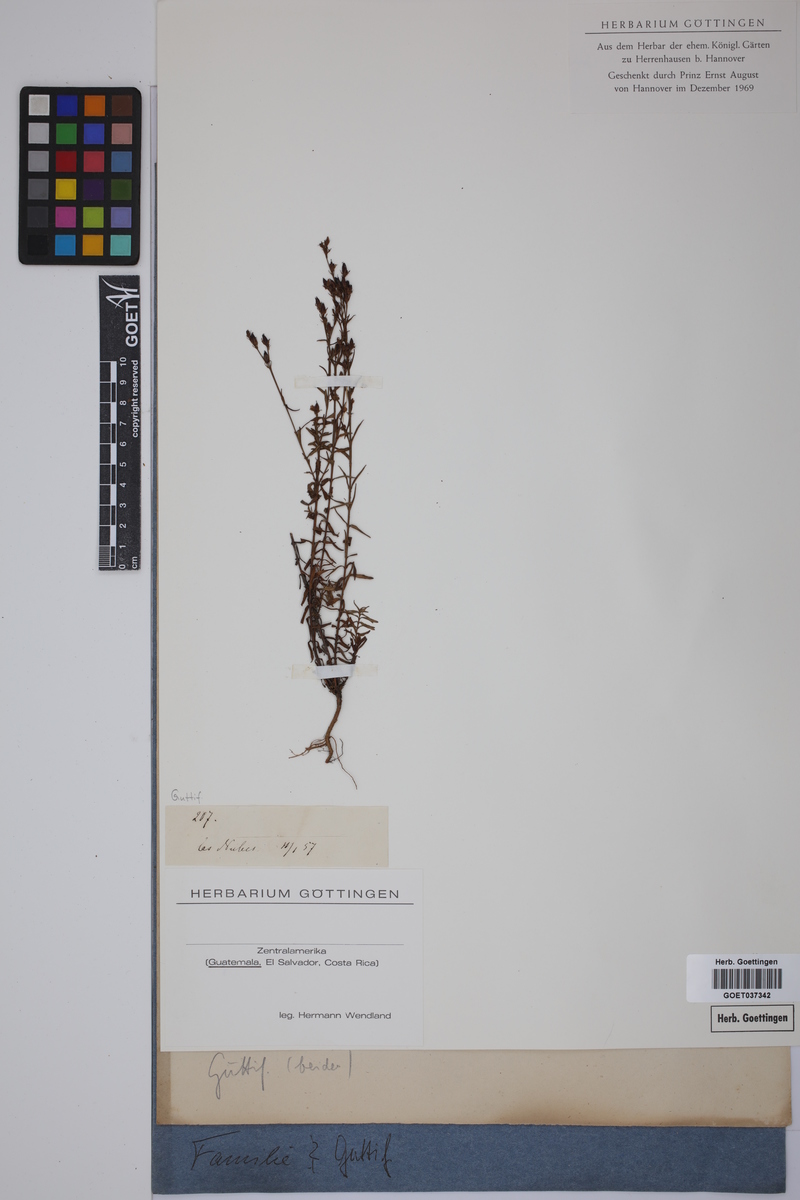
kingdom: Plantae
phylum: Tracheophyta
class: Magnoliopsida
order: Malpighiales
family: Hypericaceae
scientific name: Hypericaceae
